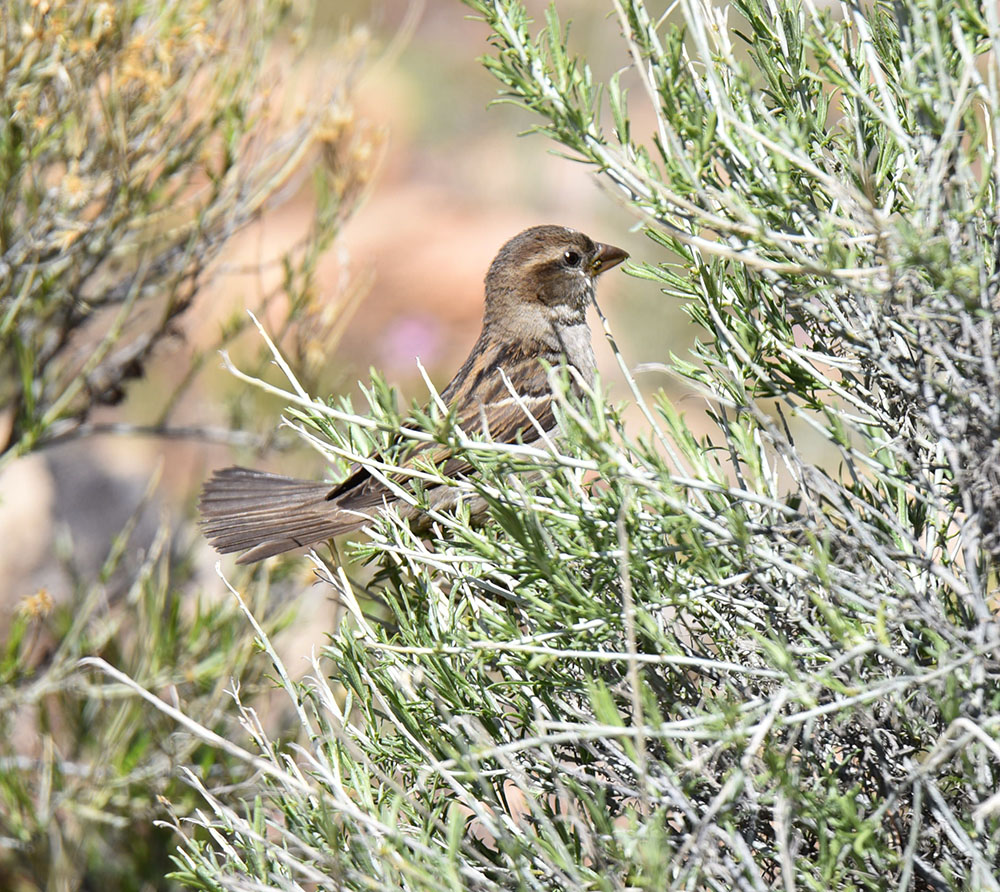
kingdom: Animalia
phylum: Chordata
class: Aves
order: Passeriformes
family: Passeridae
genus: Passer
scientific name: Passer domesticus
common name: House sparrow
